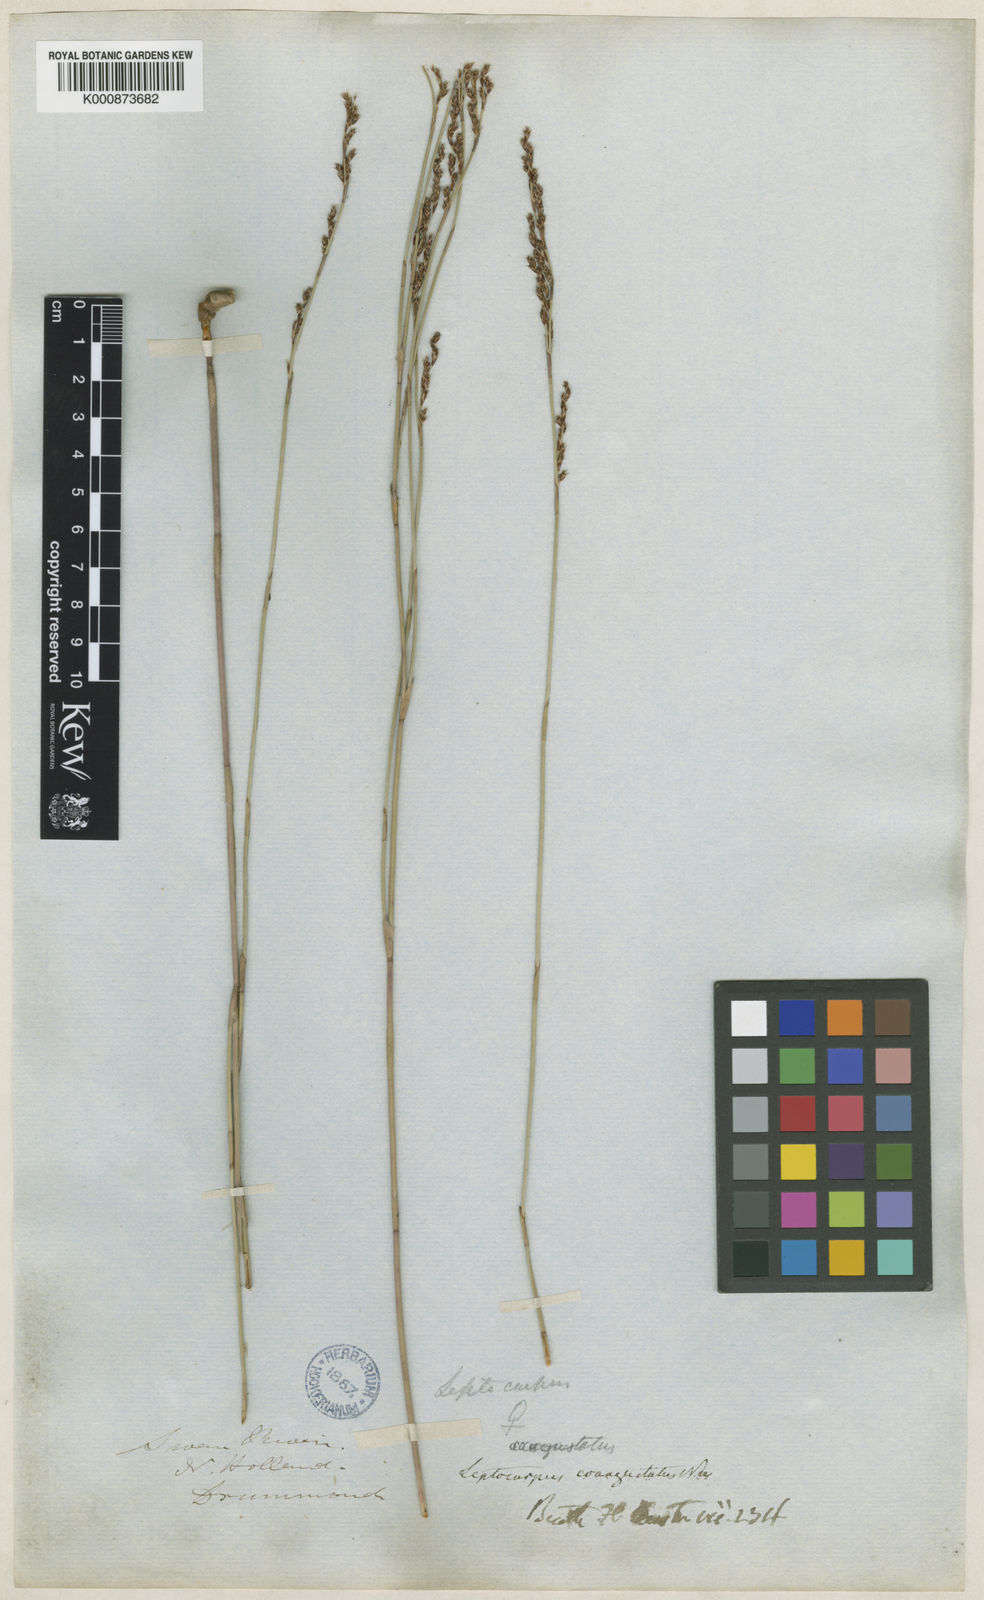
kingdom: Plantae
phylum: Tracheophyta
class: Liliopsida
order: Poales
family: Restionaceae
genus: Leptocarpus
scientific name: Leptocarpus coangustatus
